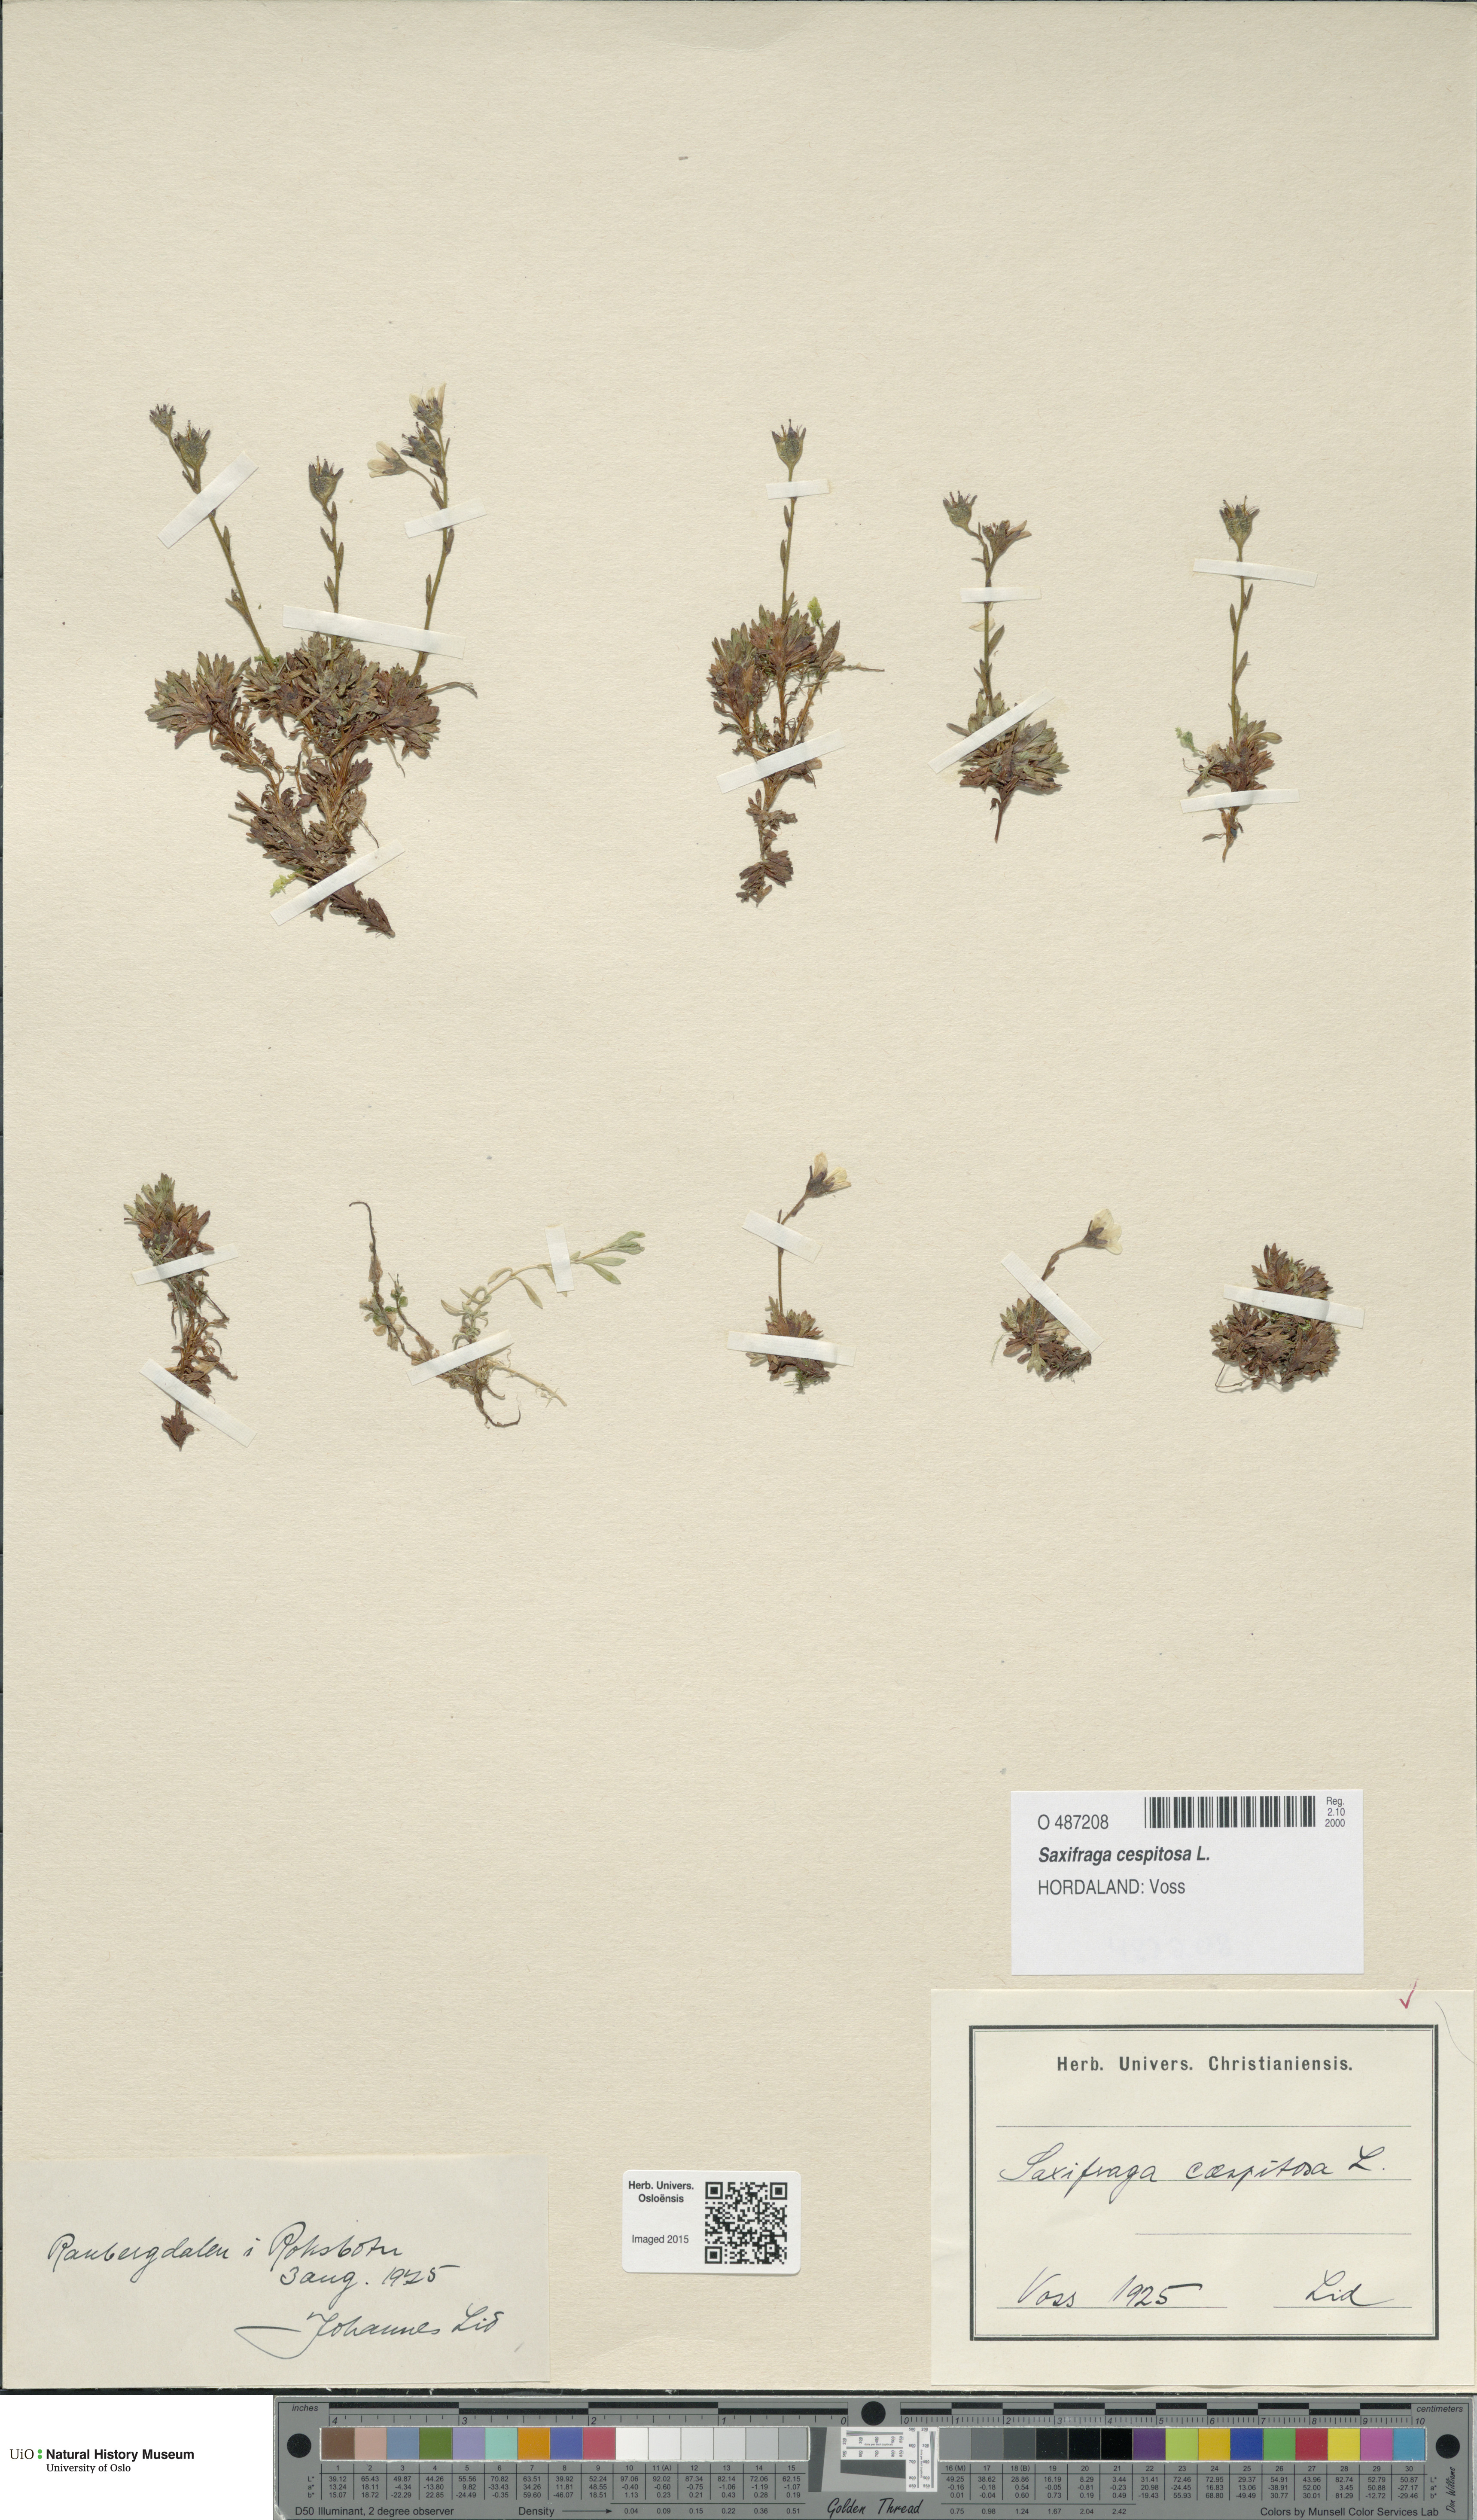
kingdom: Plantae
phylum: Tracheophyta
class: Magnoliopsida
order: Saxifragales
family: Saxifragaceae
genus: Saxifraga
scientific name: Saxifraga cespitosa
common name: Tufted saxifrage
